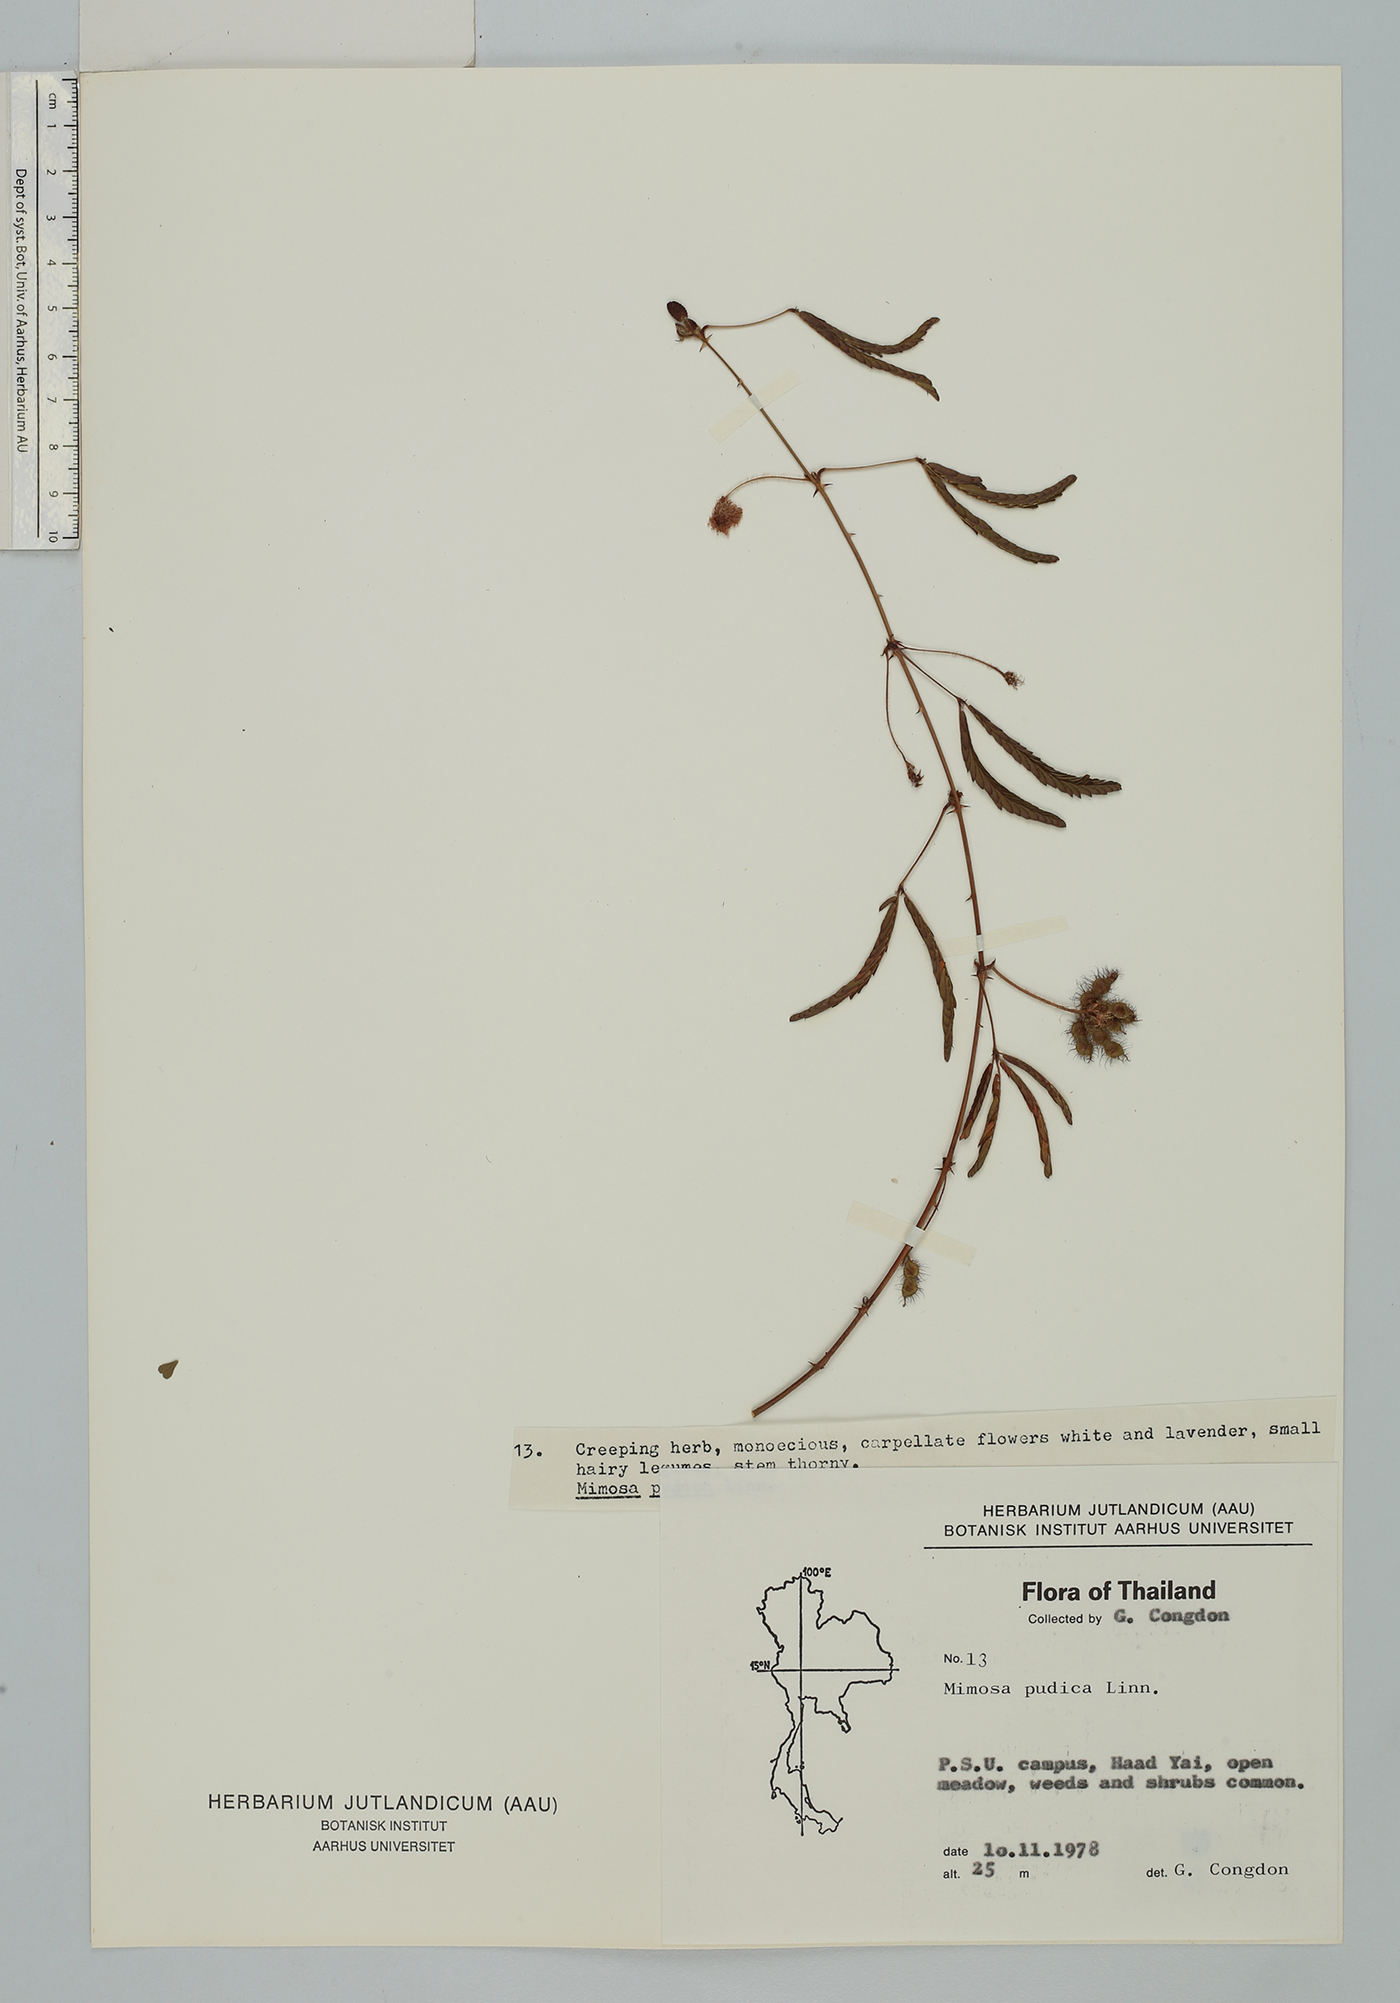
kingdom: Plantae
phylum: Tracheophyta
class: Magnoliopsida
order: Fabales
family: Fabaceae
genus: Mimosa
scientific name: Mimosa pudica
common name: Sensitive plant
